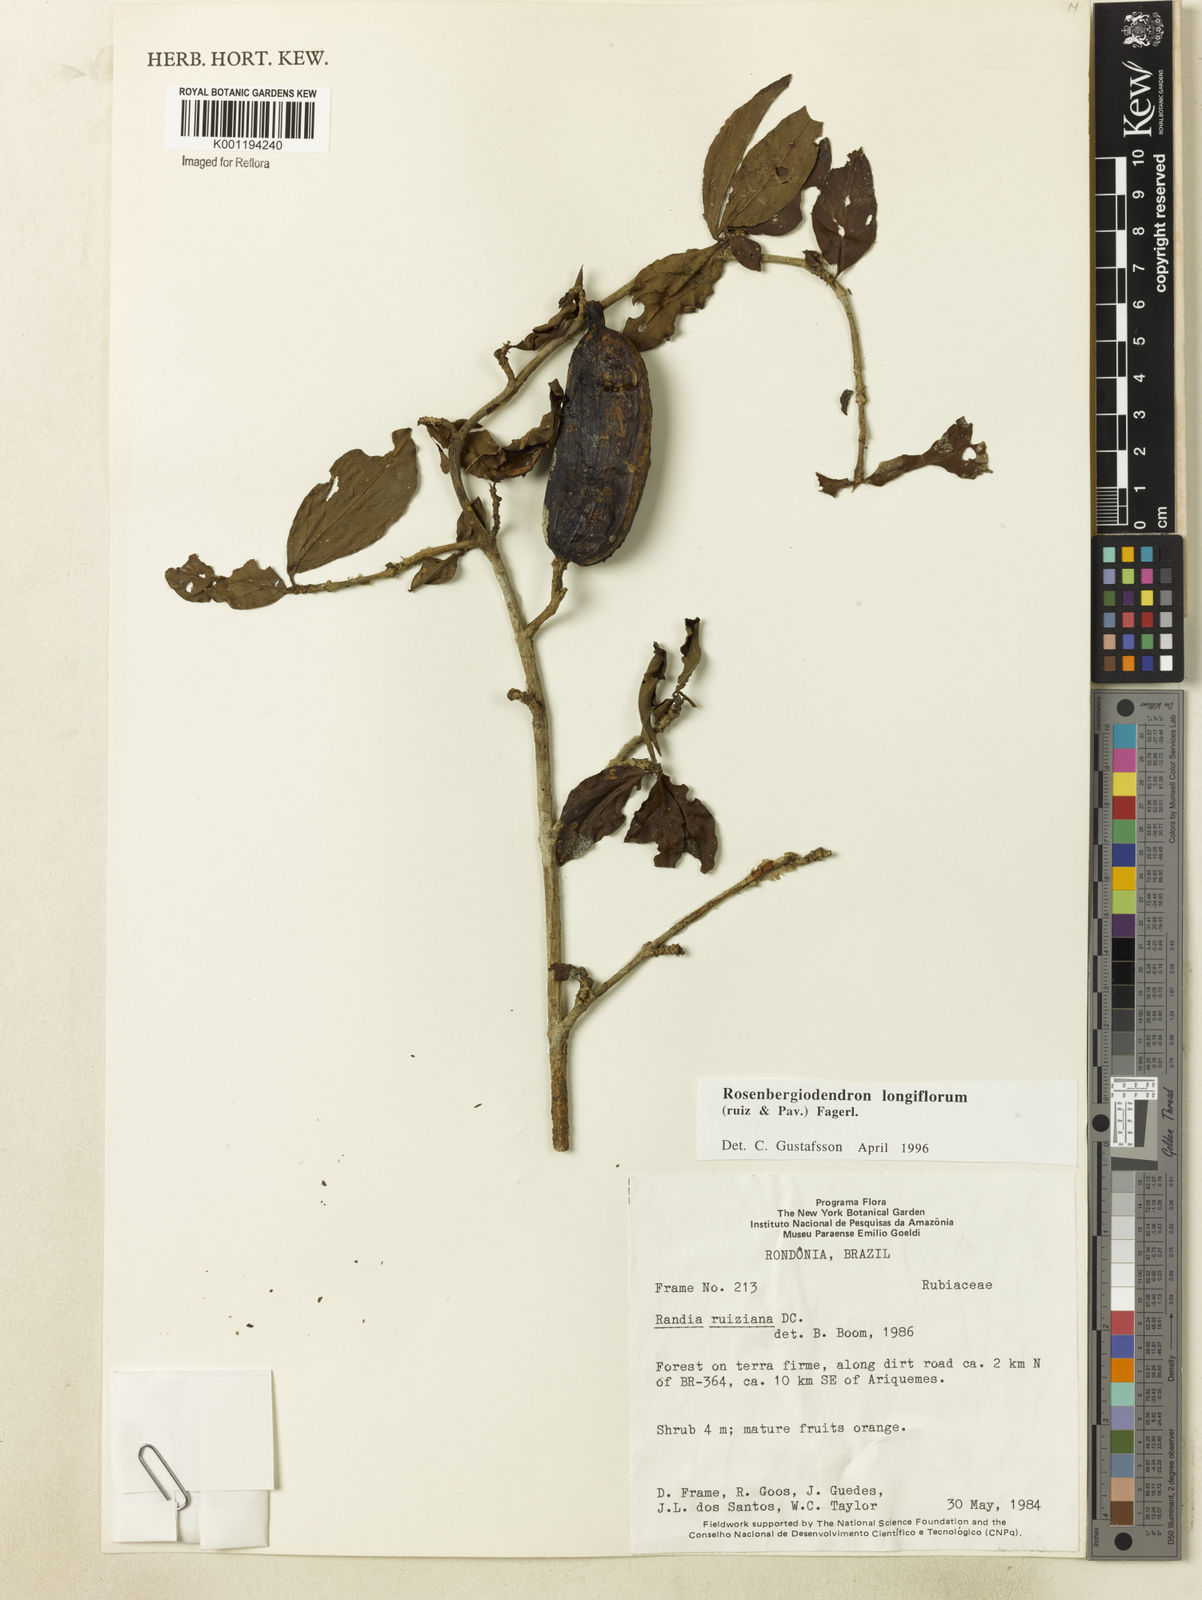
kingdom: Plantae
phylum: Tracheophyta
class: Magnoliopsida
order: Gentianales
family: Rubiaceae
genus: Rosenbergiodendron
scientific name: Rosenbergiodendron longiflorum
